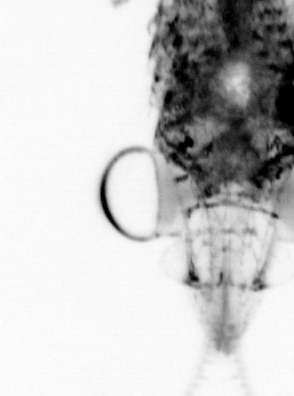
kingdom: Animalia
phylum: Arthropoda
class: Copepoda
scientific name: Copepoda
